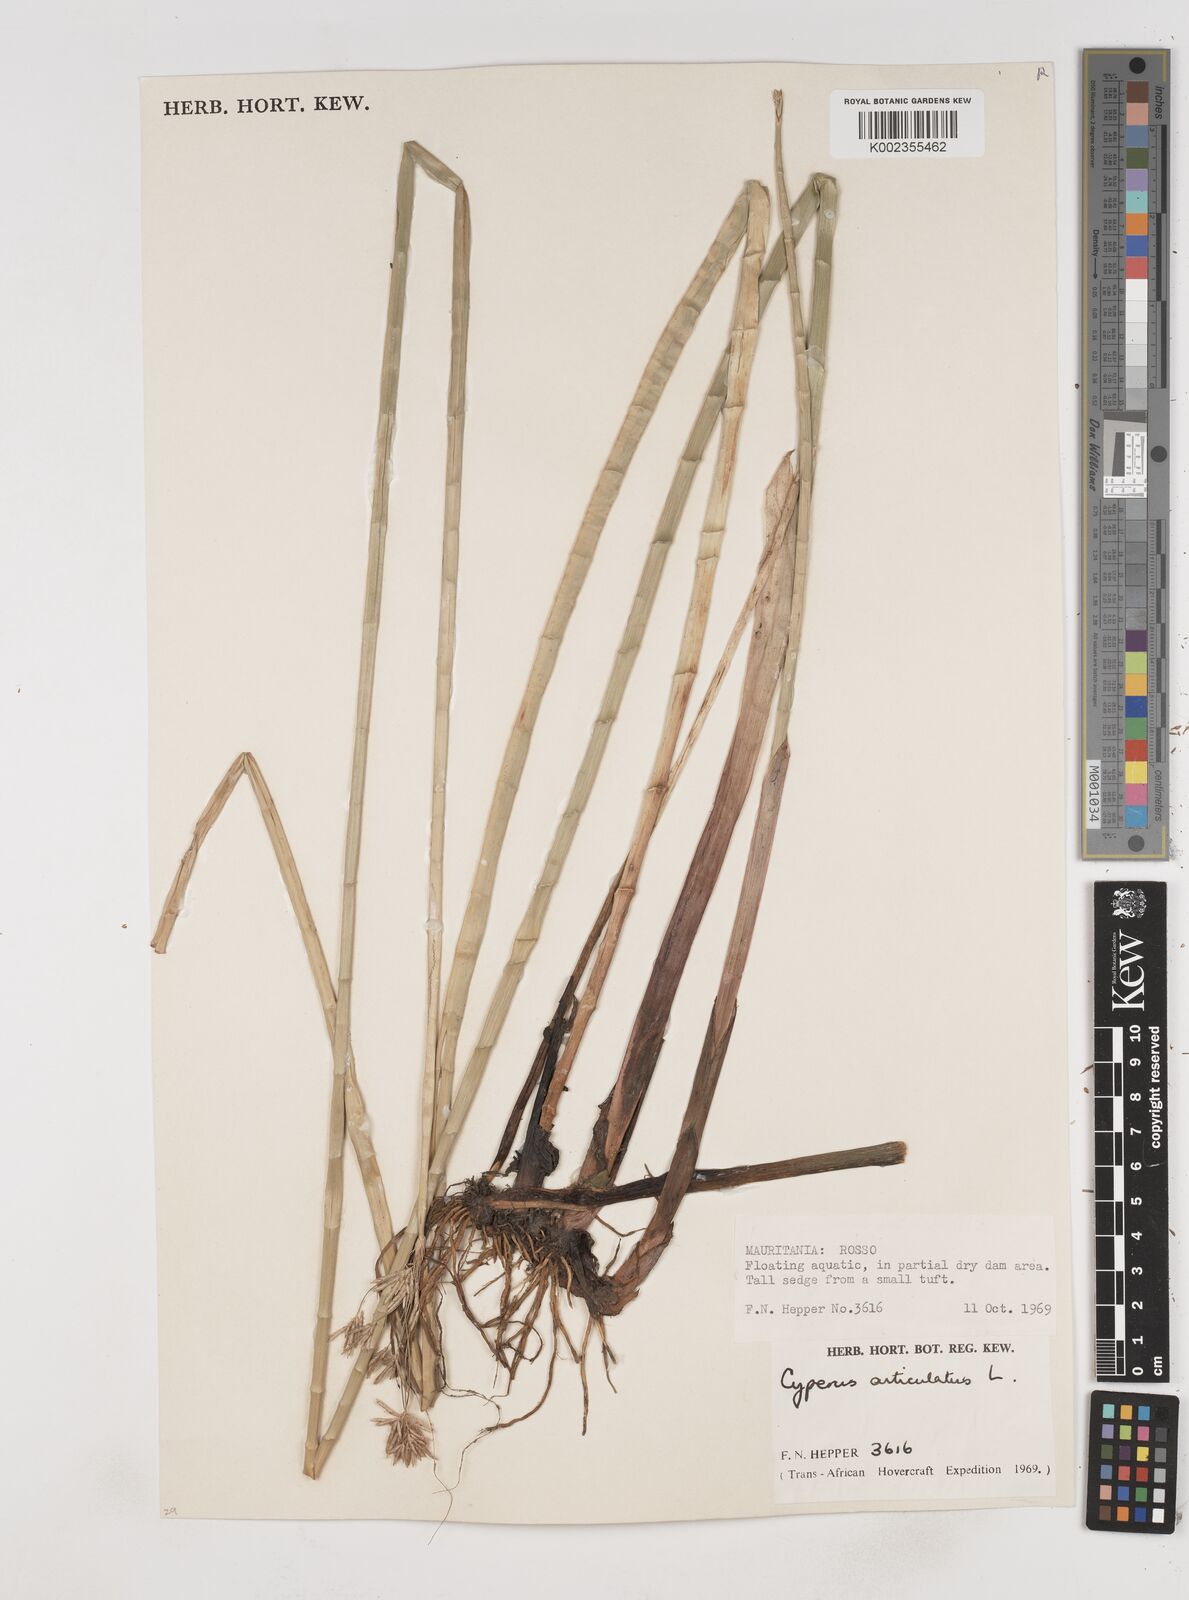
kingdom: Plantae
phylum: Tracheophyta
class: Liliopsida
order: Poales
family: Cyperaceae
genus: Cyperus
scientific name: Cyperus articulatus
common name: Jointed flatsedge
